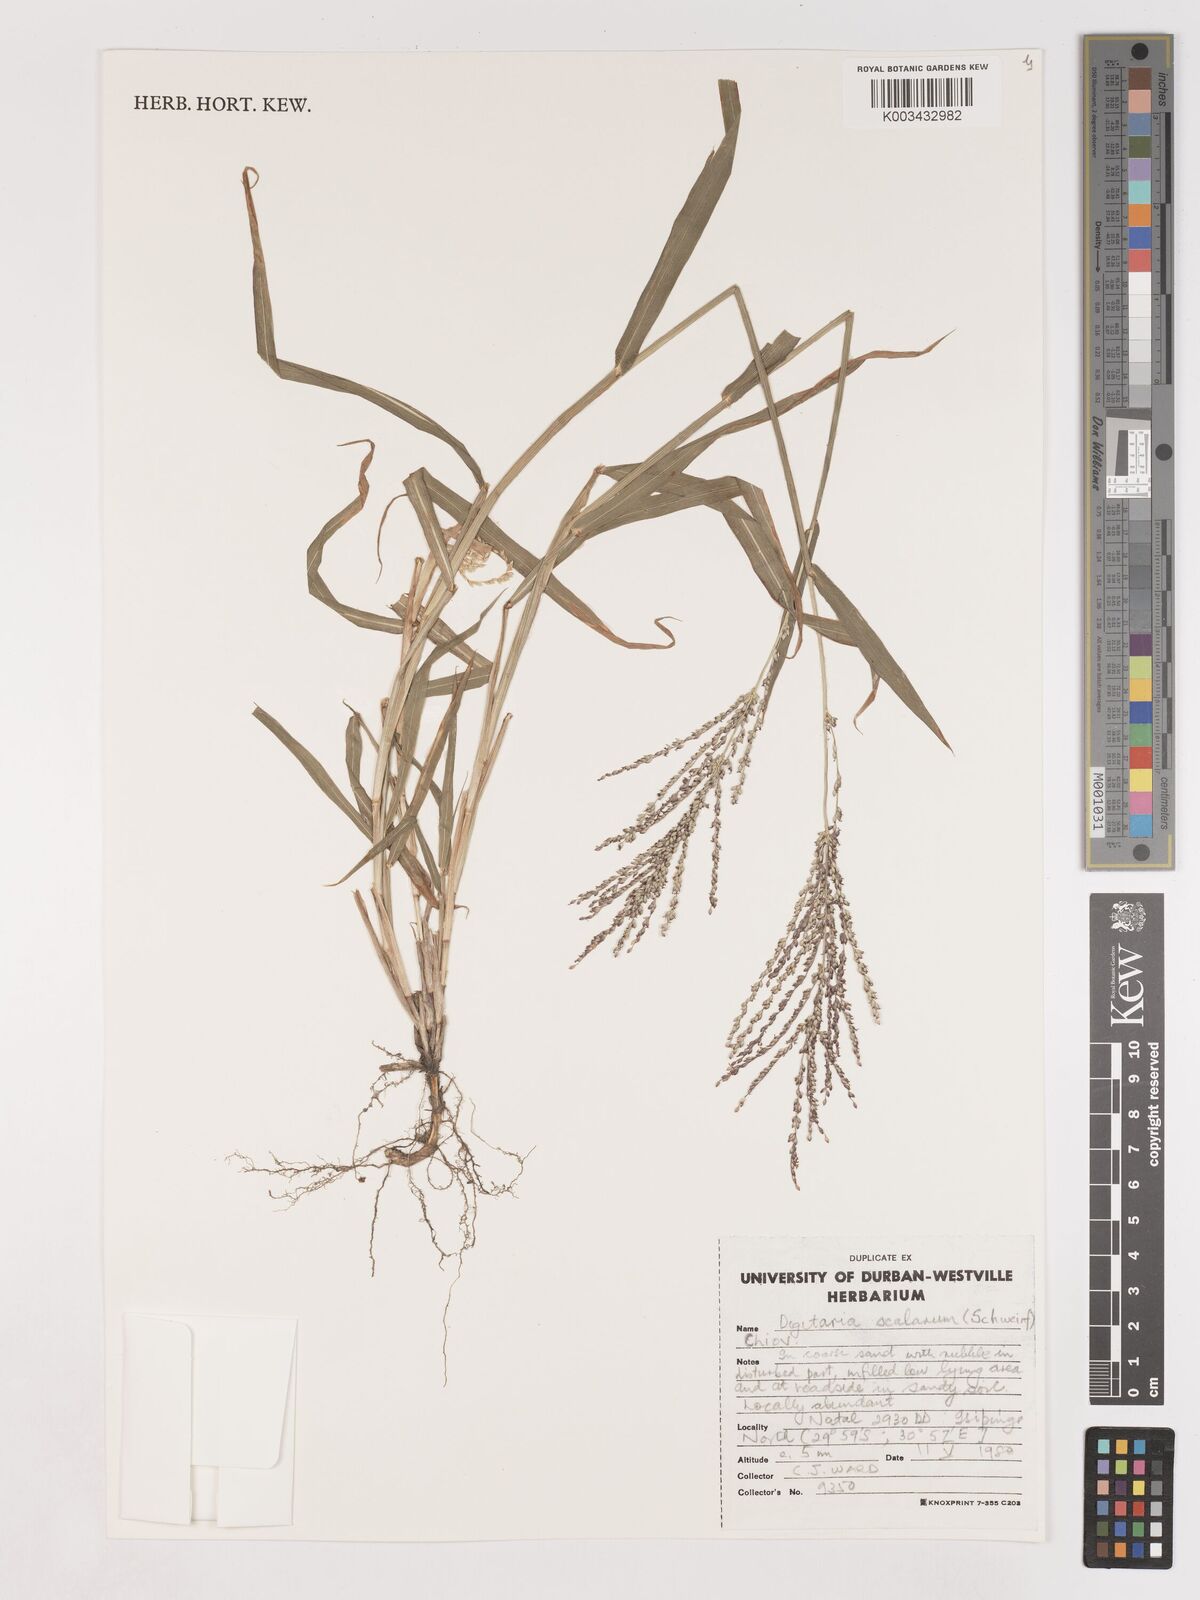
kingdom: Plantae
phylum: Tracheophyta
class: Liliopsida
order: Poales
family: Poaceae
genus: Digitaria
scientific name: Digitaria abyssinica
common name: African couchgrass
